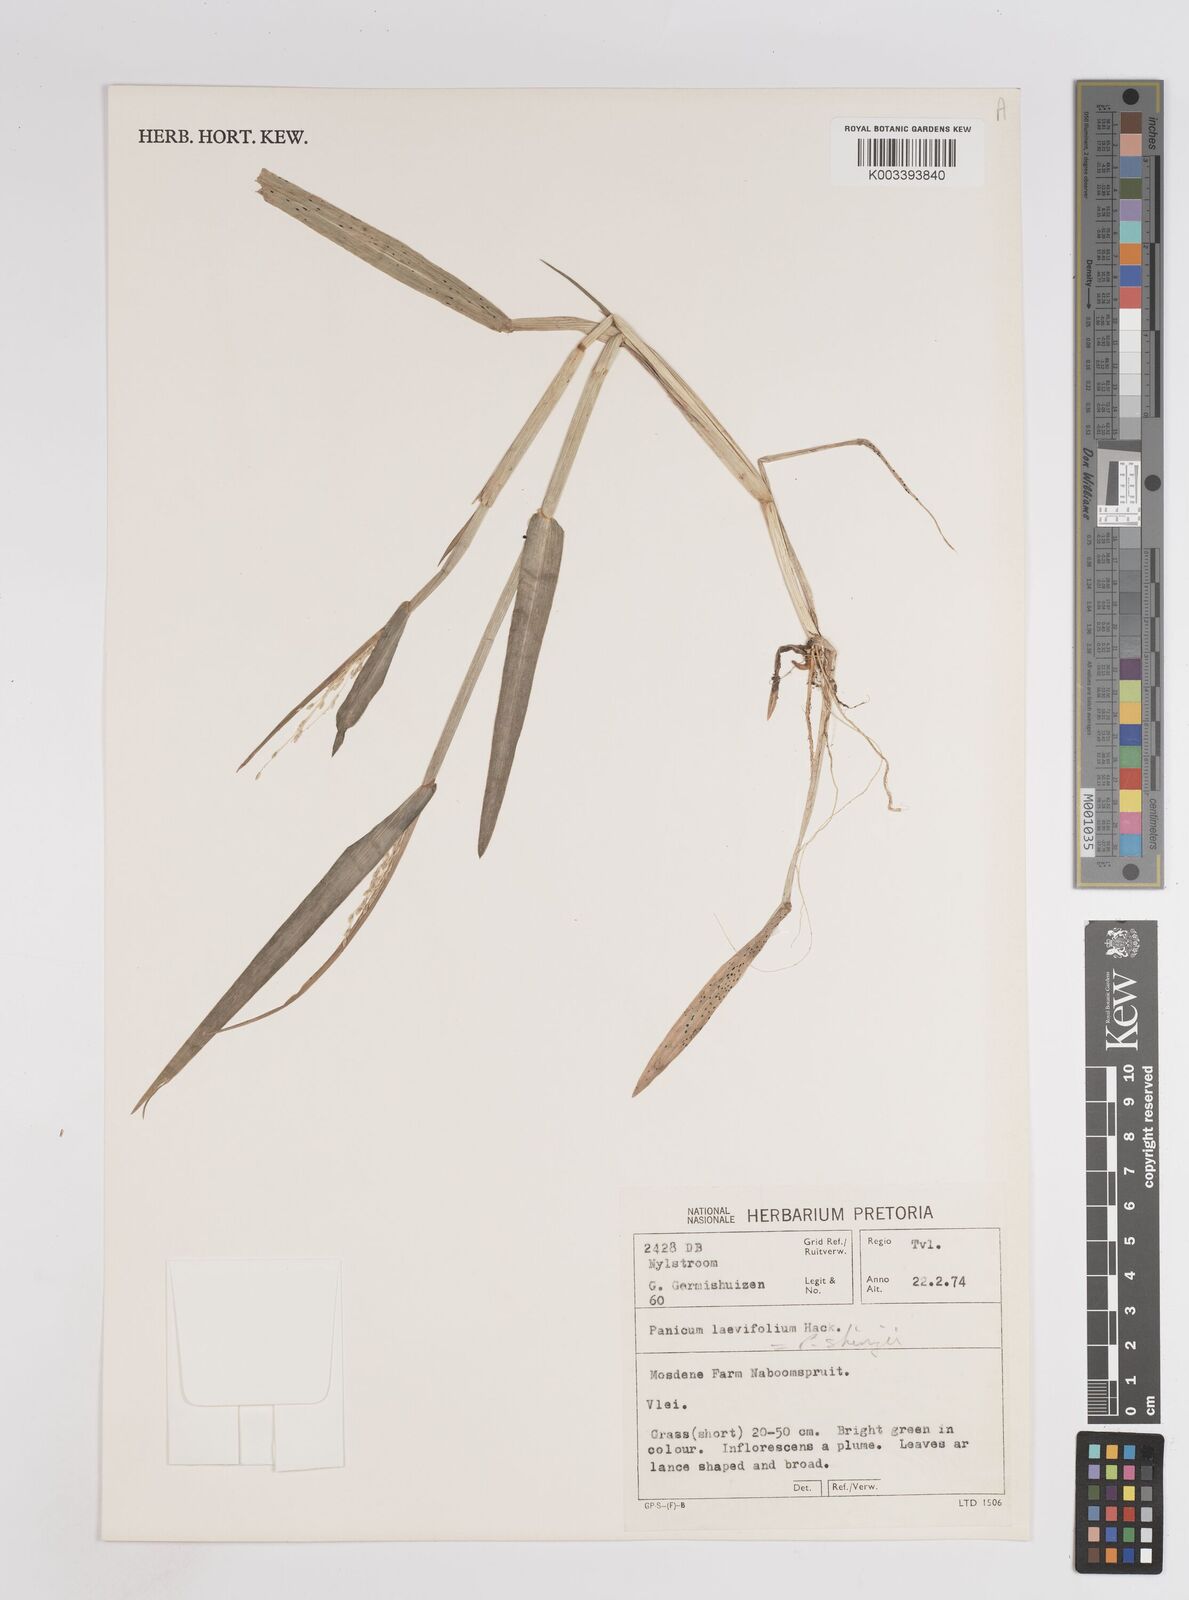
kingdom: Plantae
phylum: Tracheophyta
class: Liliopsida
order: Poales
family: Poaceae
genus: Panicum
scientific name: Panicum hygrocharis
